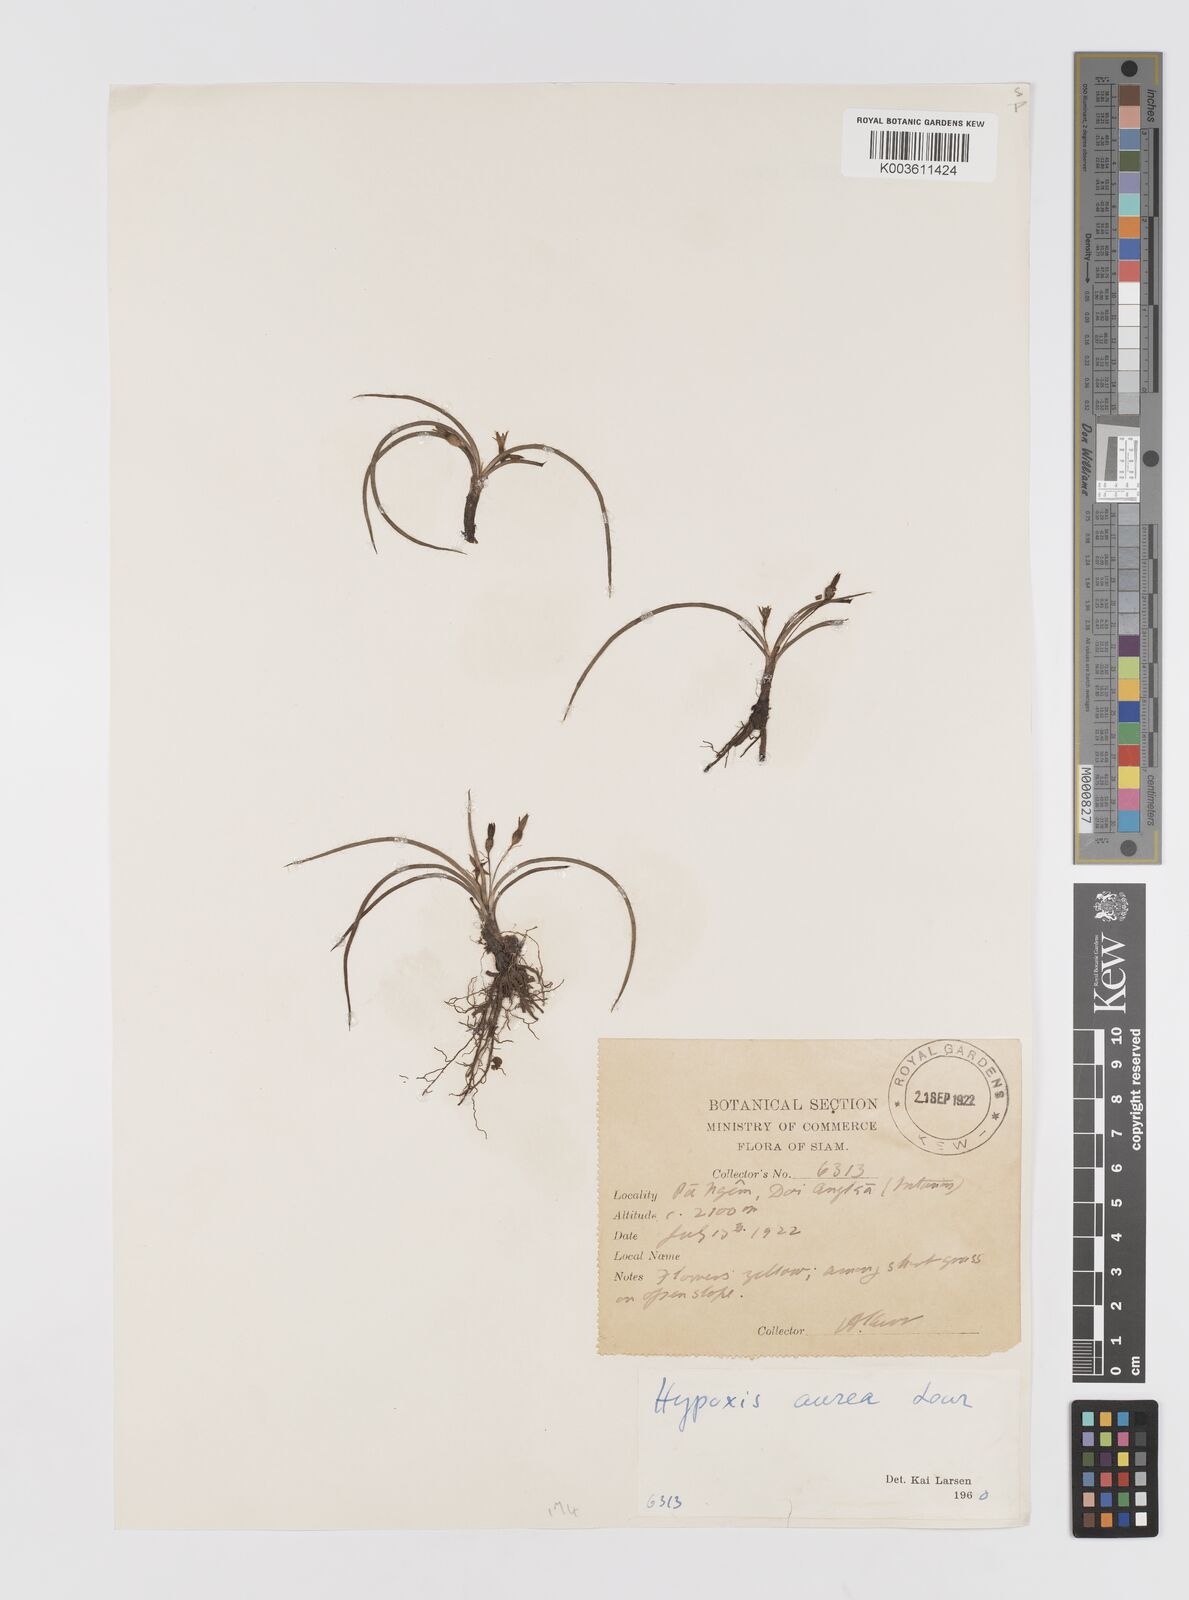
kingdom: Plantae
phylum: Tracheophyta
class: Liliopsida
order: Asparagales
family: Hypoxidaceae
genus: Hypoxis
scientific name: Hypoxis aurea
